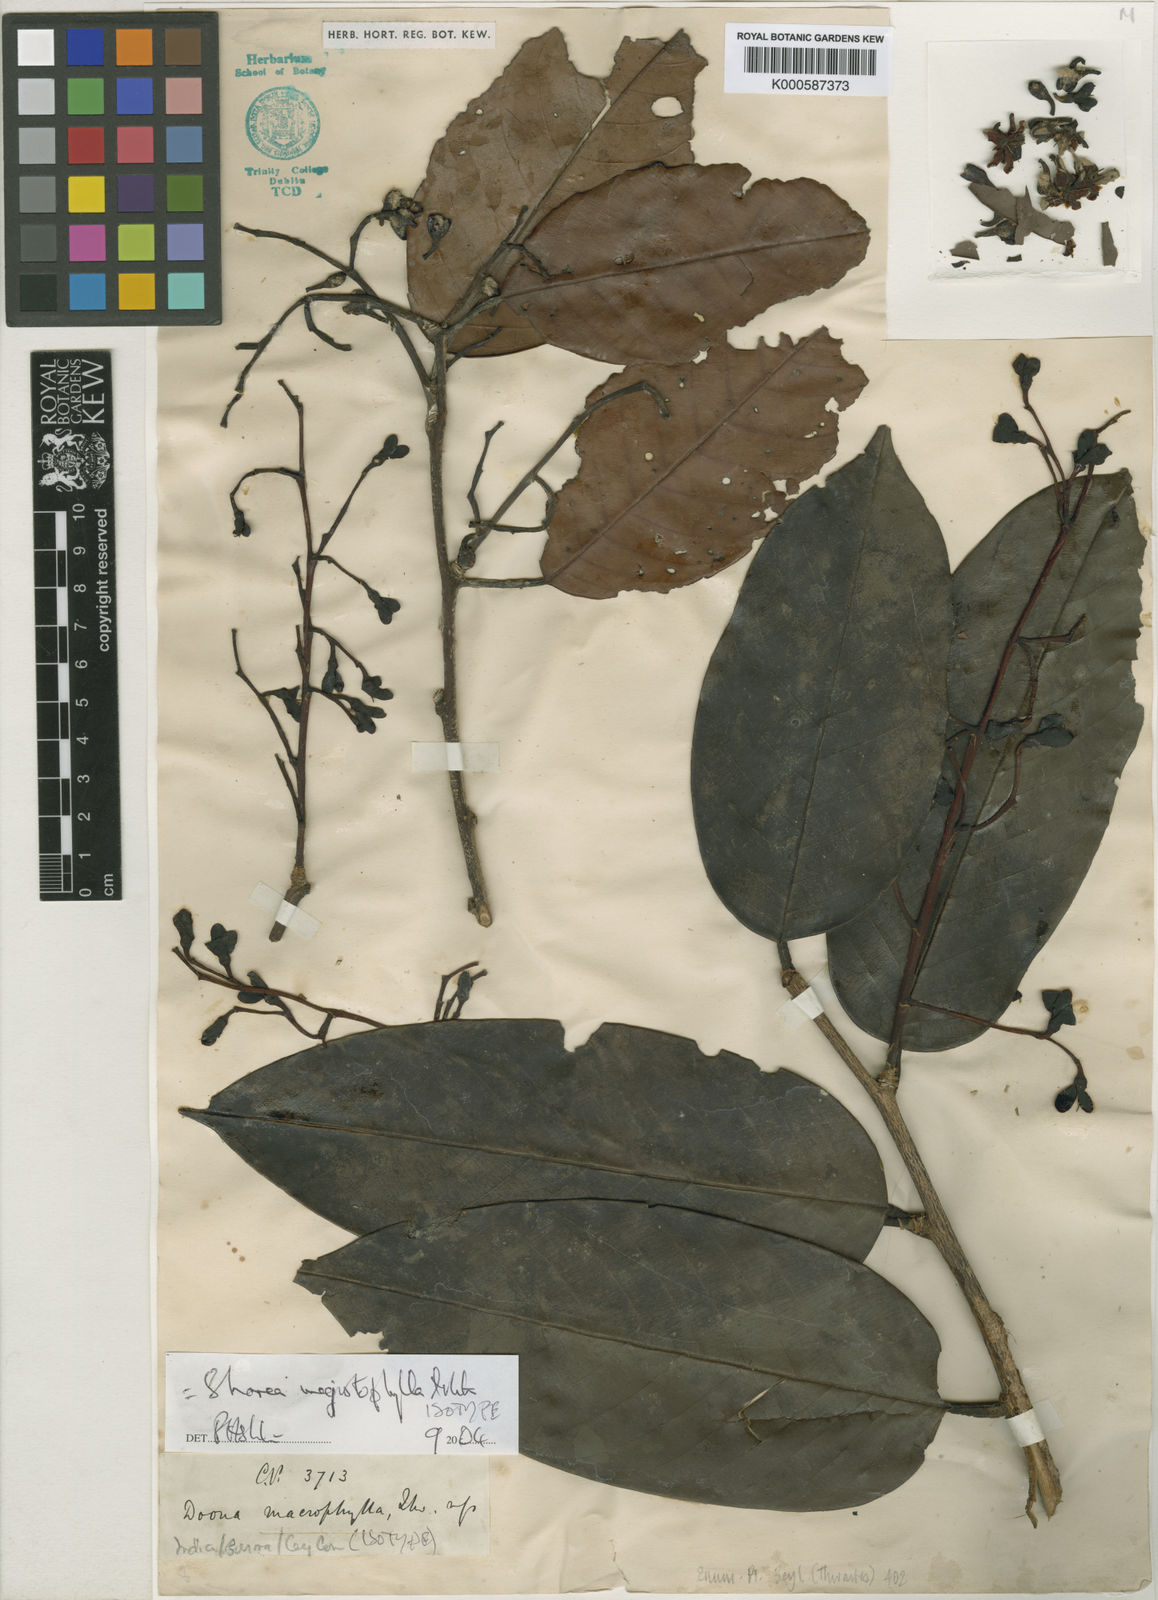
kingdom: Plantae
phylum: Tracheophyta
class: Magnoliopsida
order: Malvales
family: Dipterocarpaceae
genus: Doona
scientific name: Doona macrophylla
